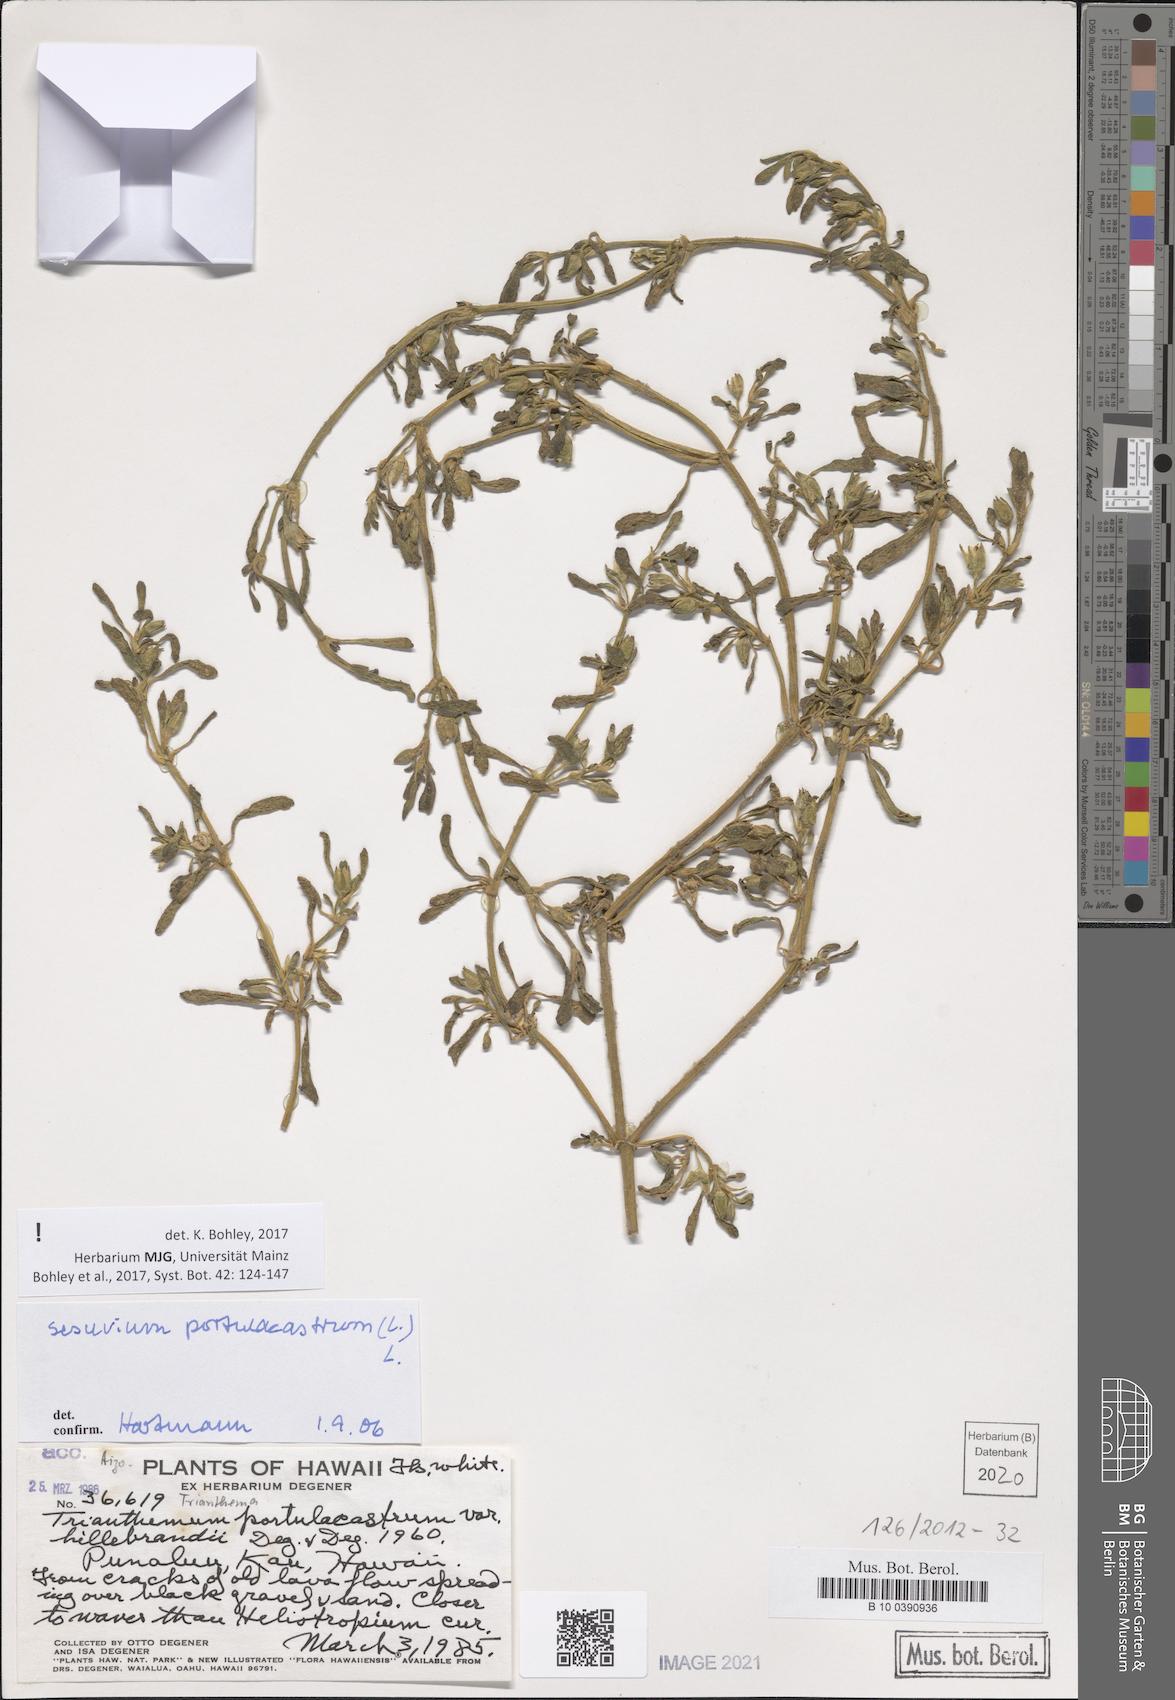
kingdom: Plantae
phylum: Tracheophyta
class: Magnoliopsida
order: Caryophyllales
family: Aizoaceae
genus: Sesuvium
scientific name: Sesuvium portulacastrum
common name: Sea-purslane
